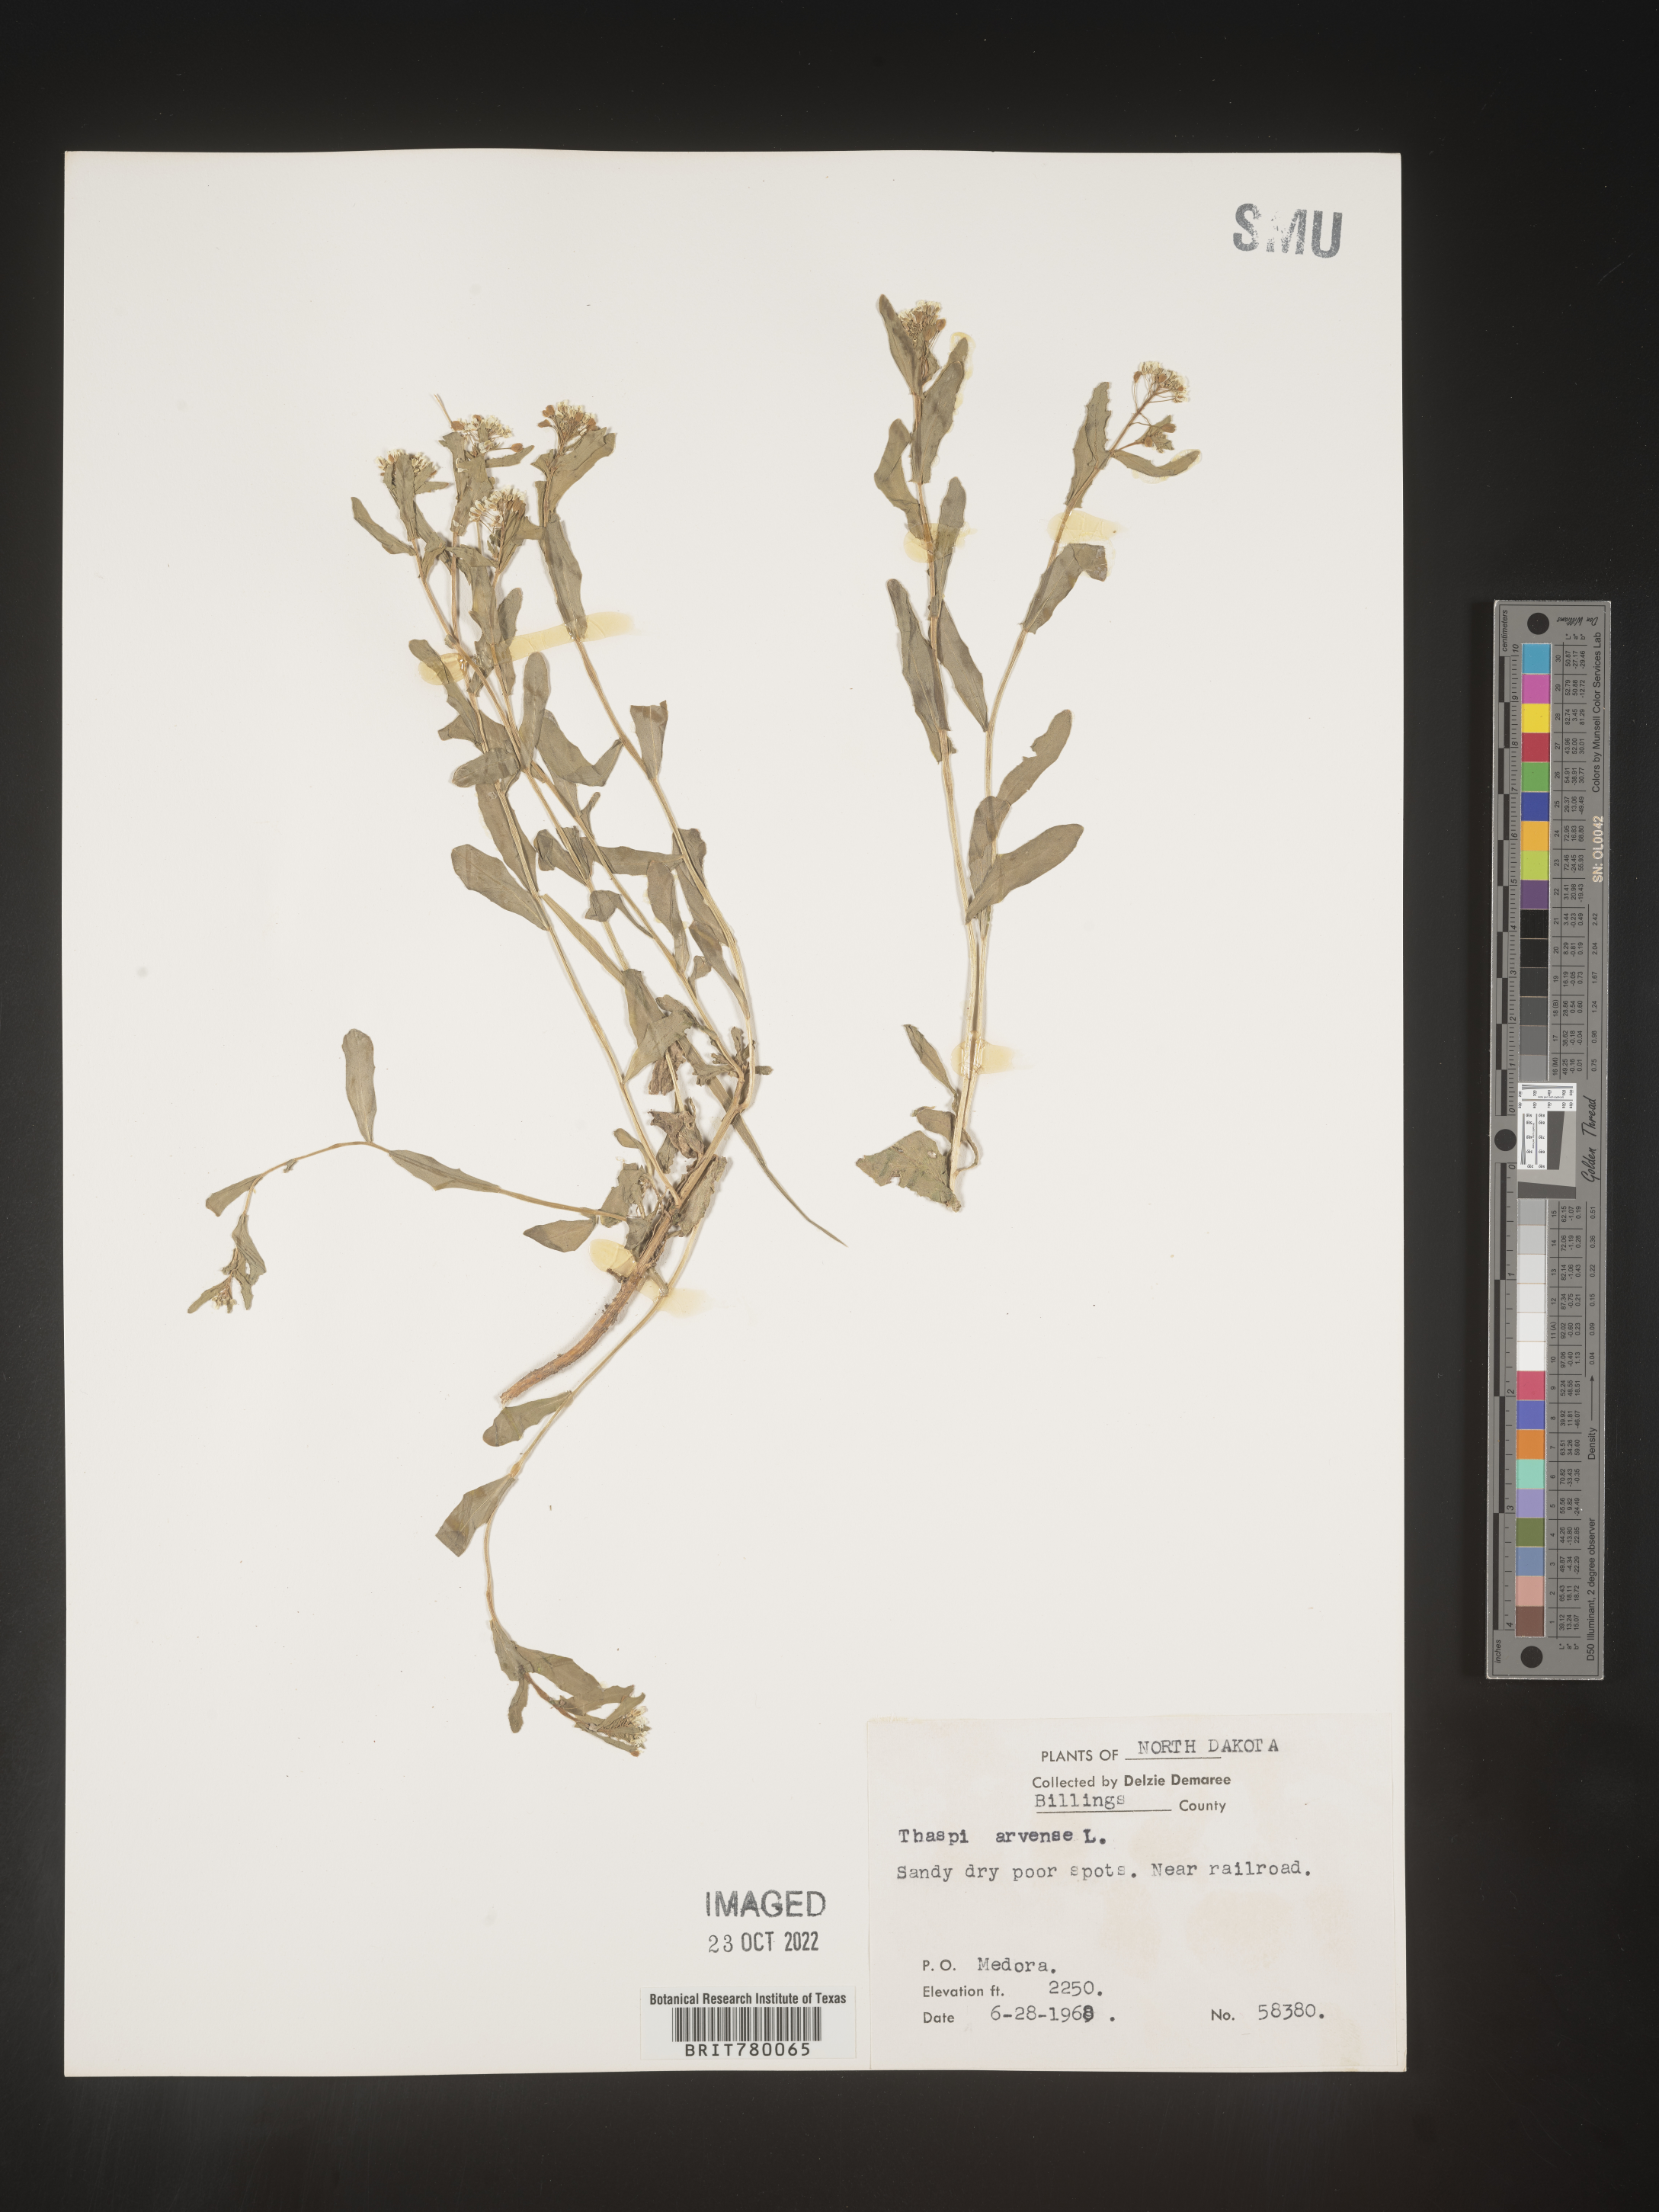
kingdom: Plantae
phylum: Tracheophyta
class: Magnoliopsida
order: Brassicales
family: Brassicaceae
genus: Thlaspi
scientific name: Thlaspi arvense
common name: Field pennycress
